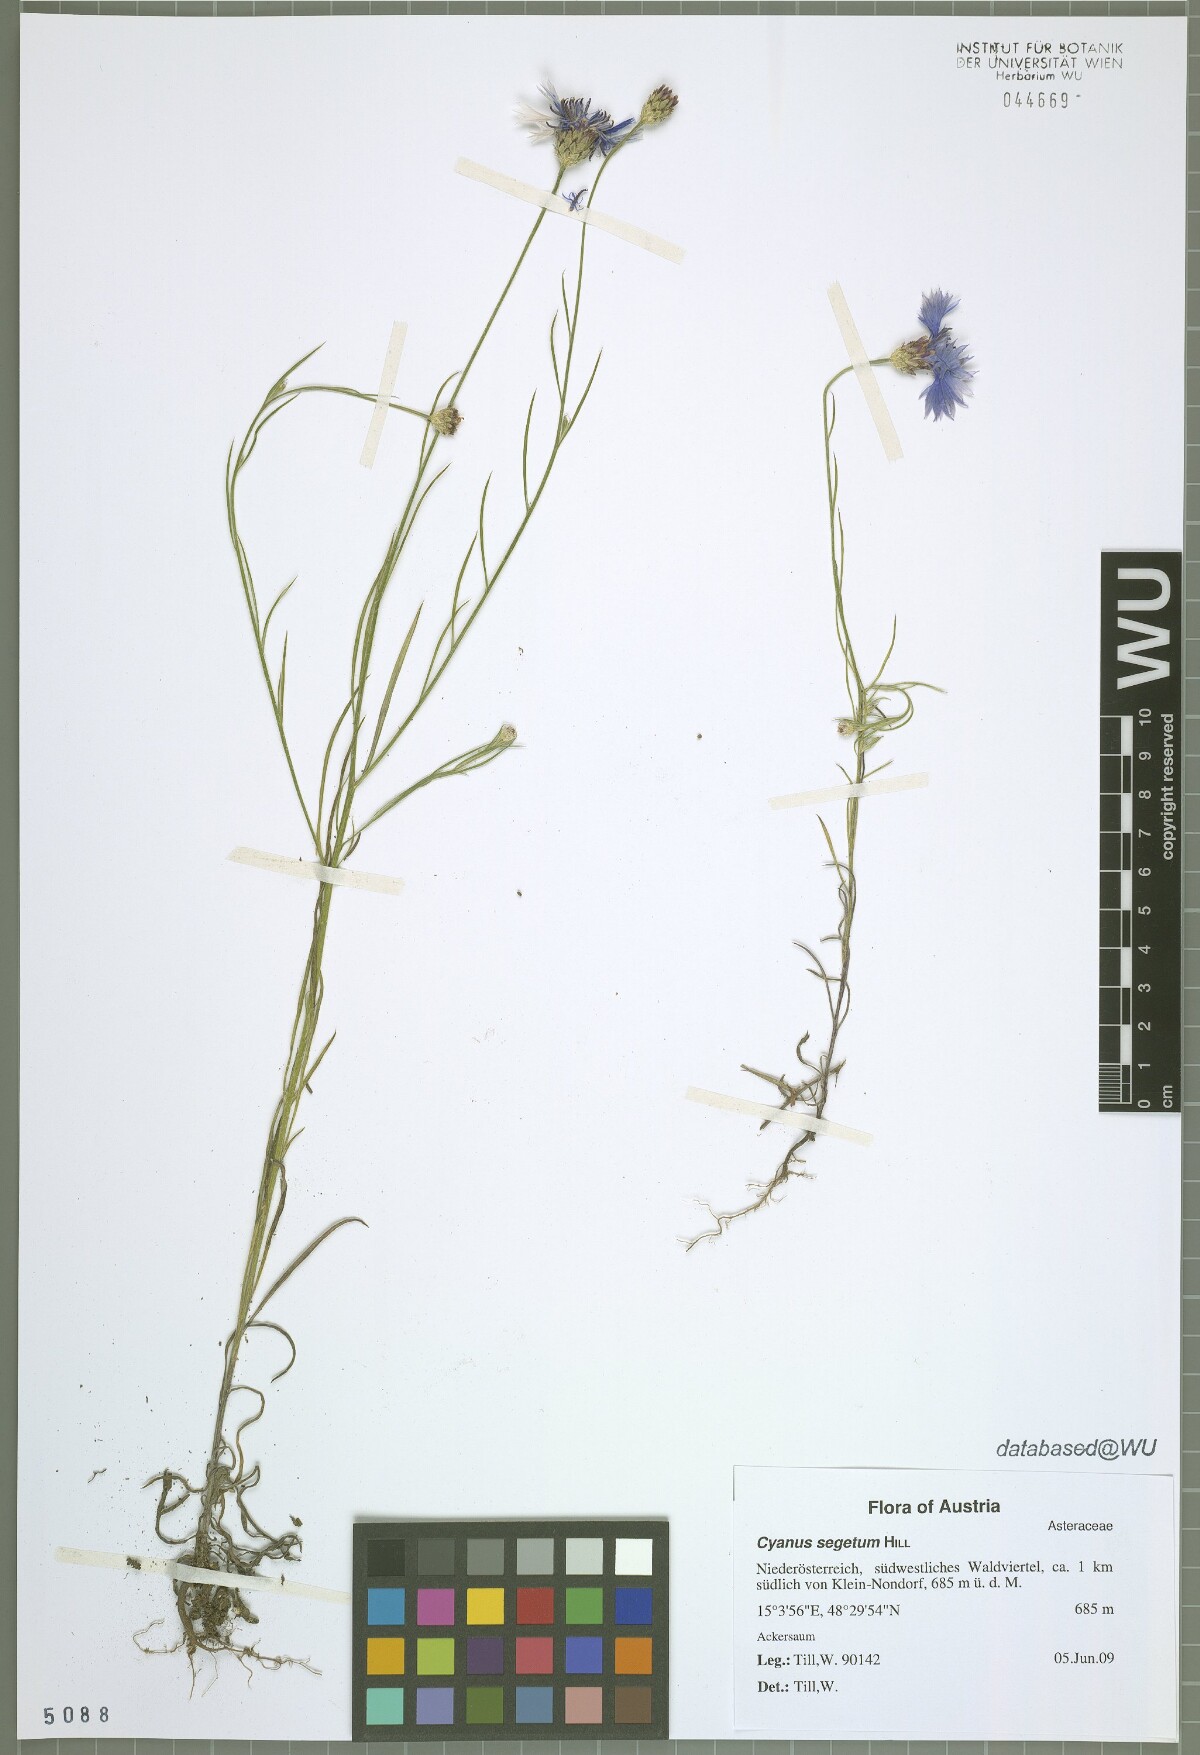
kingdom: Plantae
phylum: Tracheophyta
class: Magnoliopsida
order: Asterales
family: Asteraceae
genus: Centaurea
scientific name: Centaurea cyanus
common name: Cornflower
